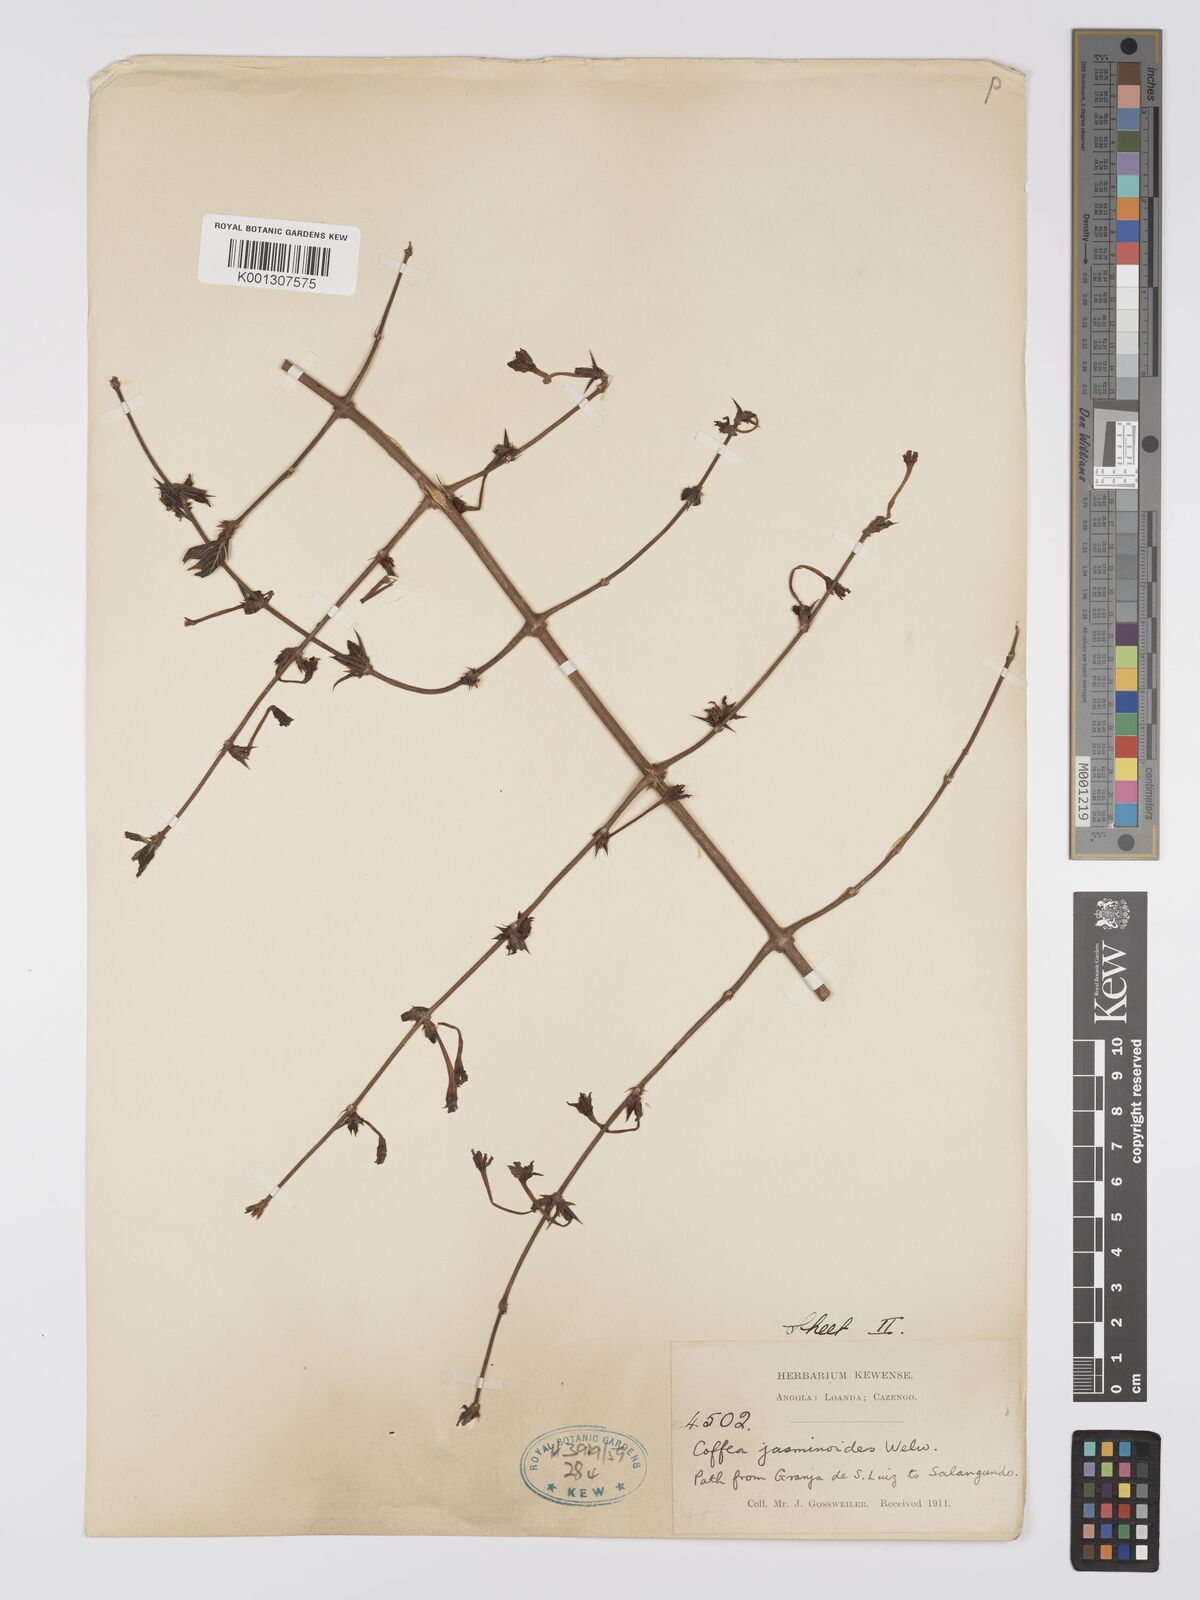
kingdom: Plantae
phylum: Tracheophyta
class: Magnoliopsida
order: Gentianales
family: Rubiaceae
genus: Argocoffeopsis
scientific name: Argocoffeopsis eketensis
